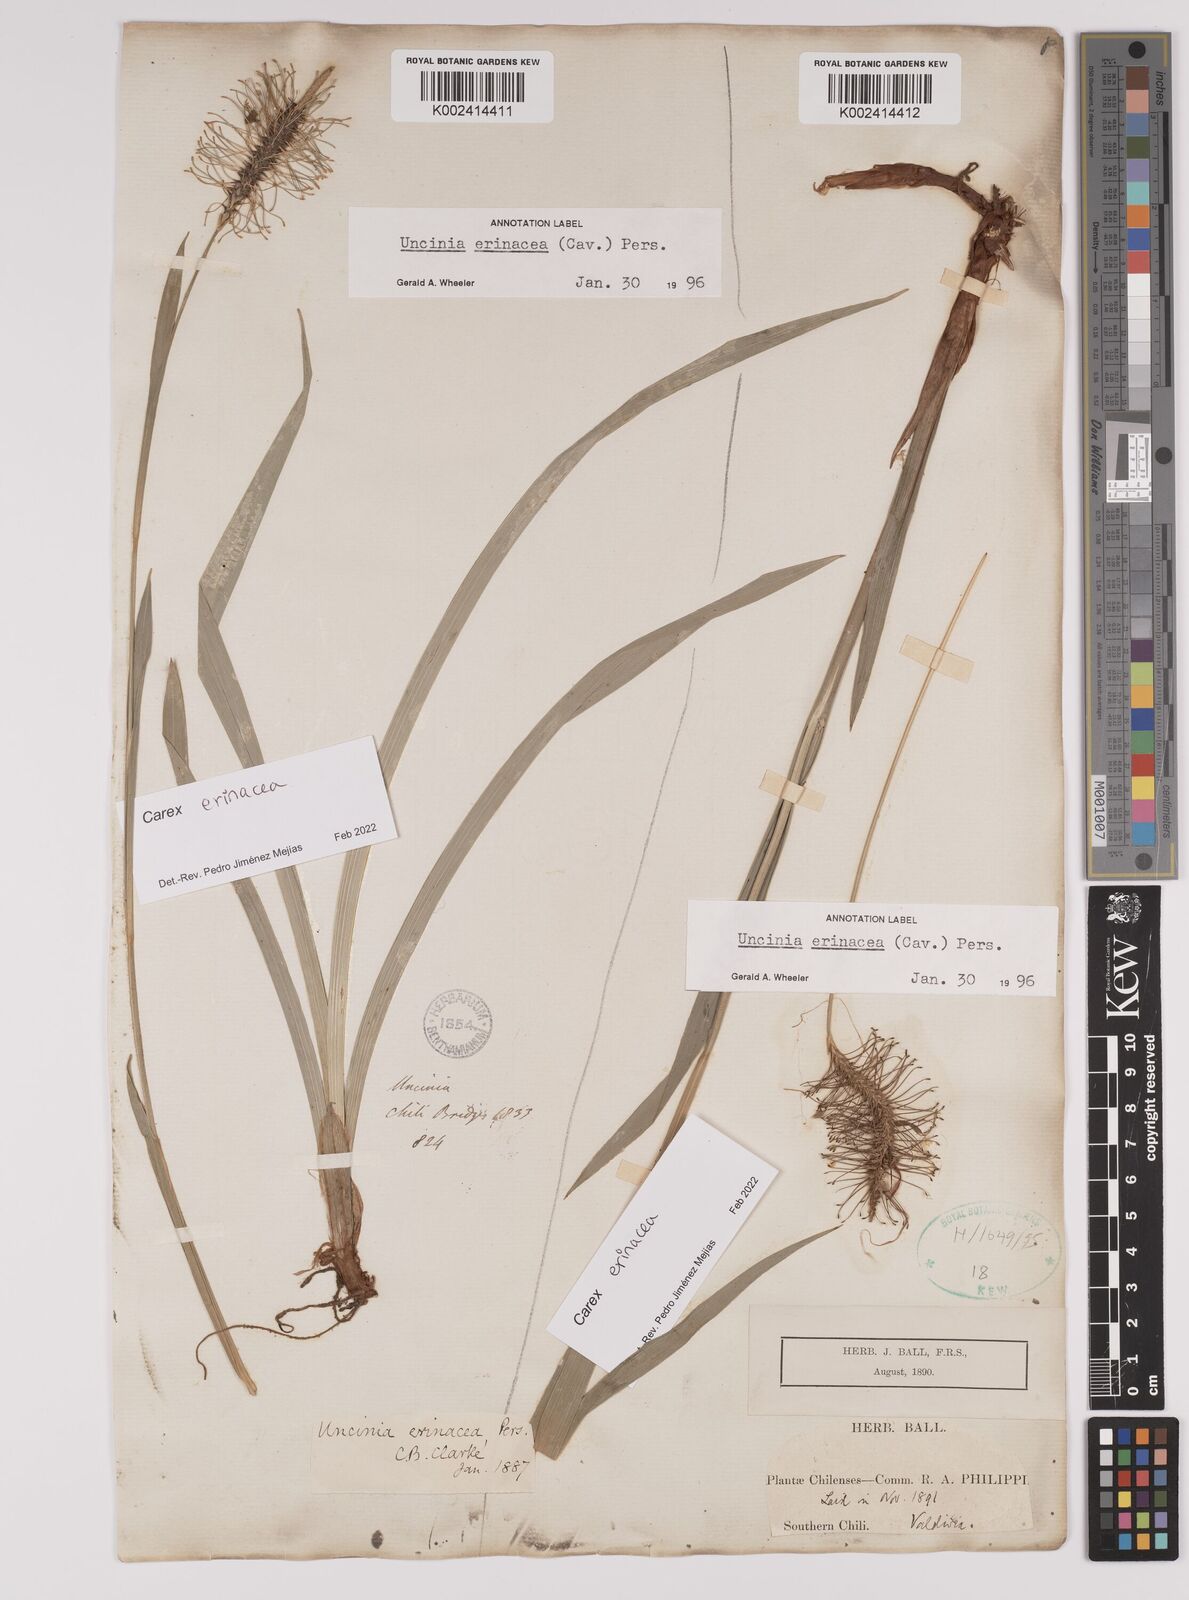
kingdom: Plantae
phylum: Tracheophyta
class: Liliopsida
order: Poales
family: Cyperaceae
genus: Carex
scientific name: Carex erinacea
